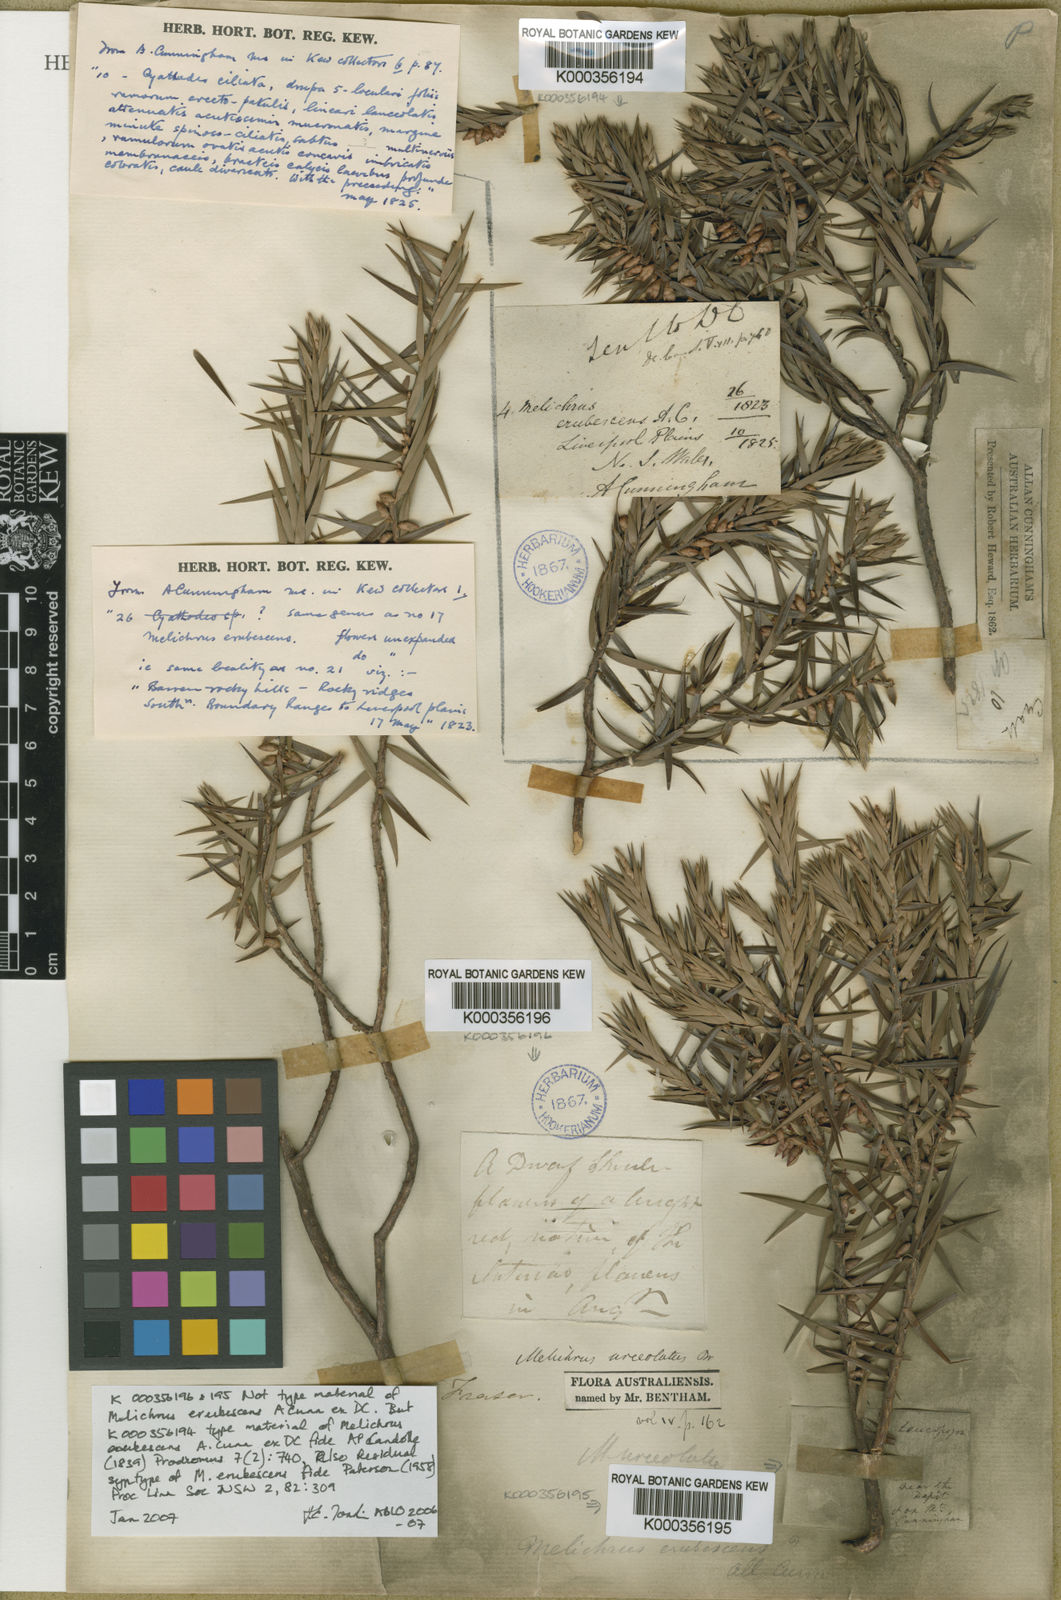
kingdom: Plantae
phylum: Tracheophyta
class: Magnoliopsida
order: Ericales
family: Ericaceae
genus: Melichrus
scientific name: Melichrus erubescens
